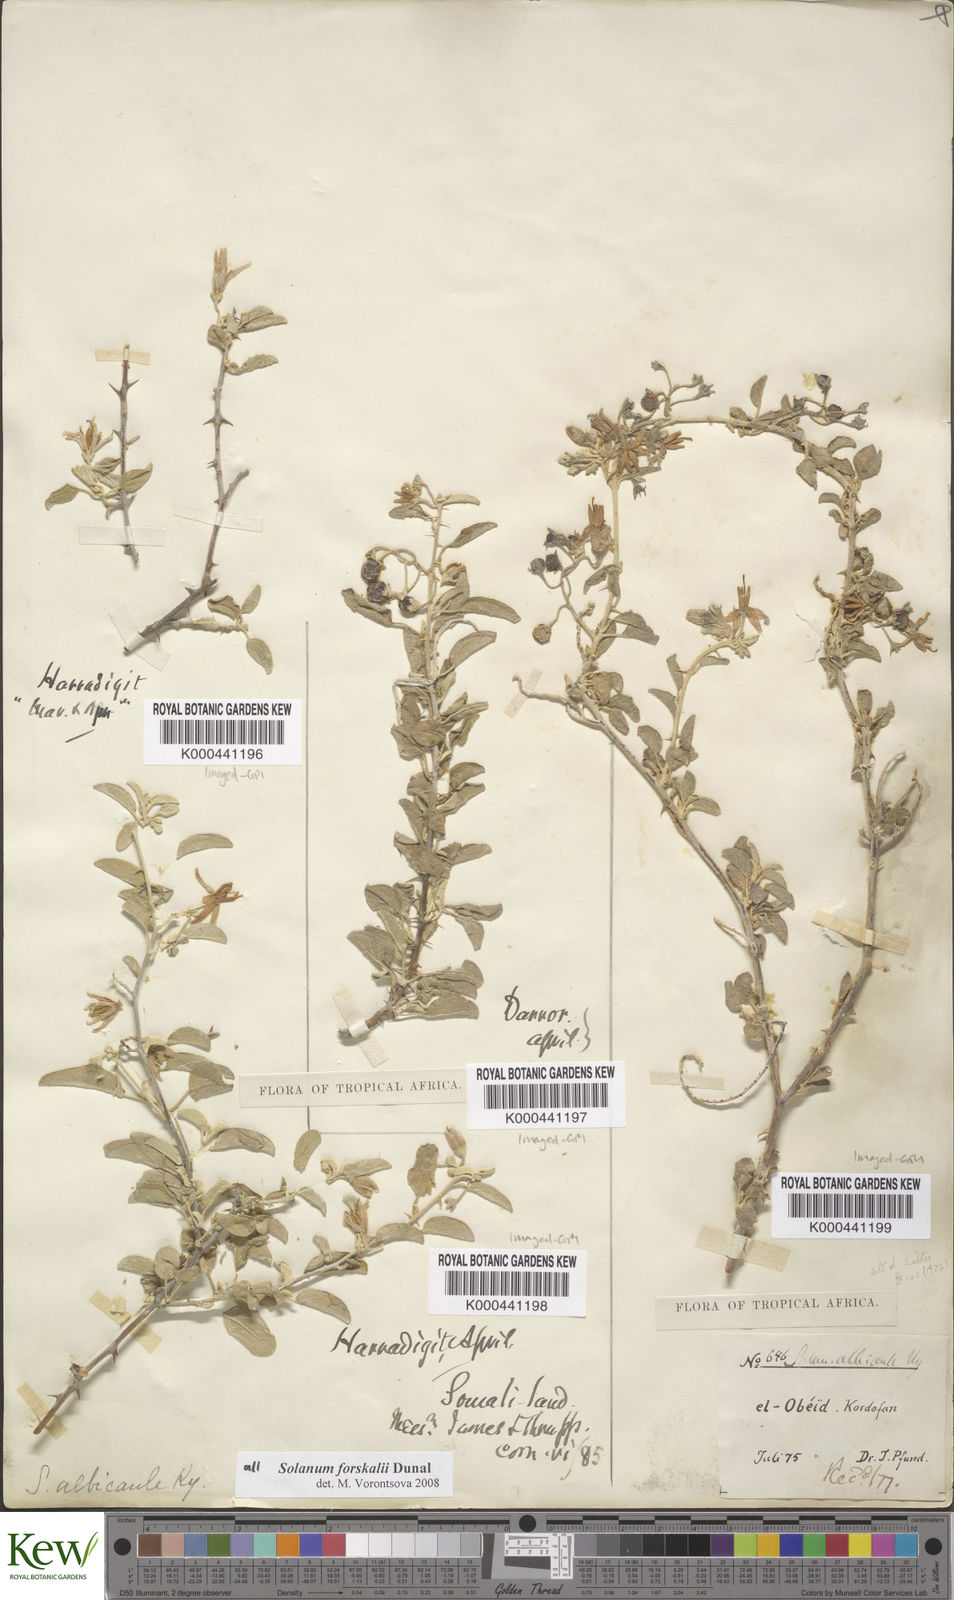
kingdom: Plantae
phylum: Tracheophyta
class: Magnoliopsida
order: Solanales
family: Solanaceae
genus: Solanum
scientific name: Solanum
